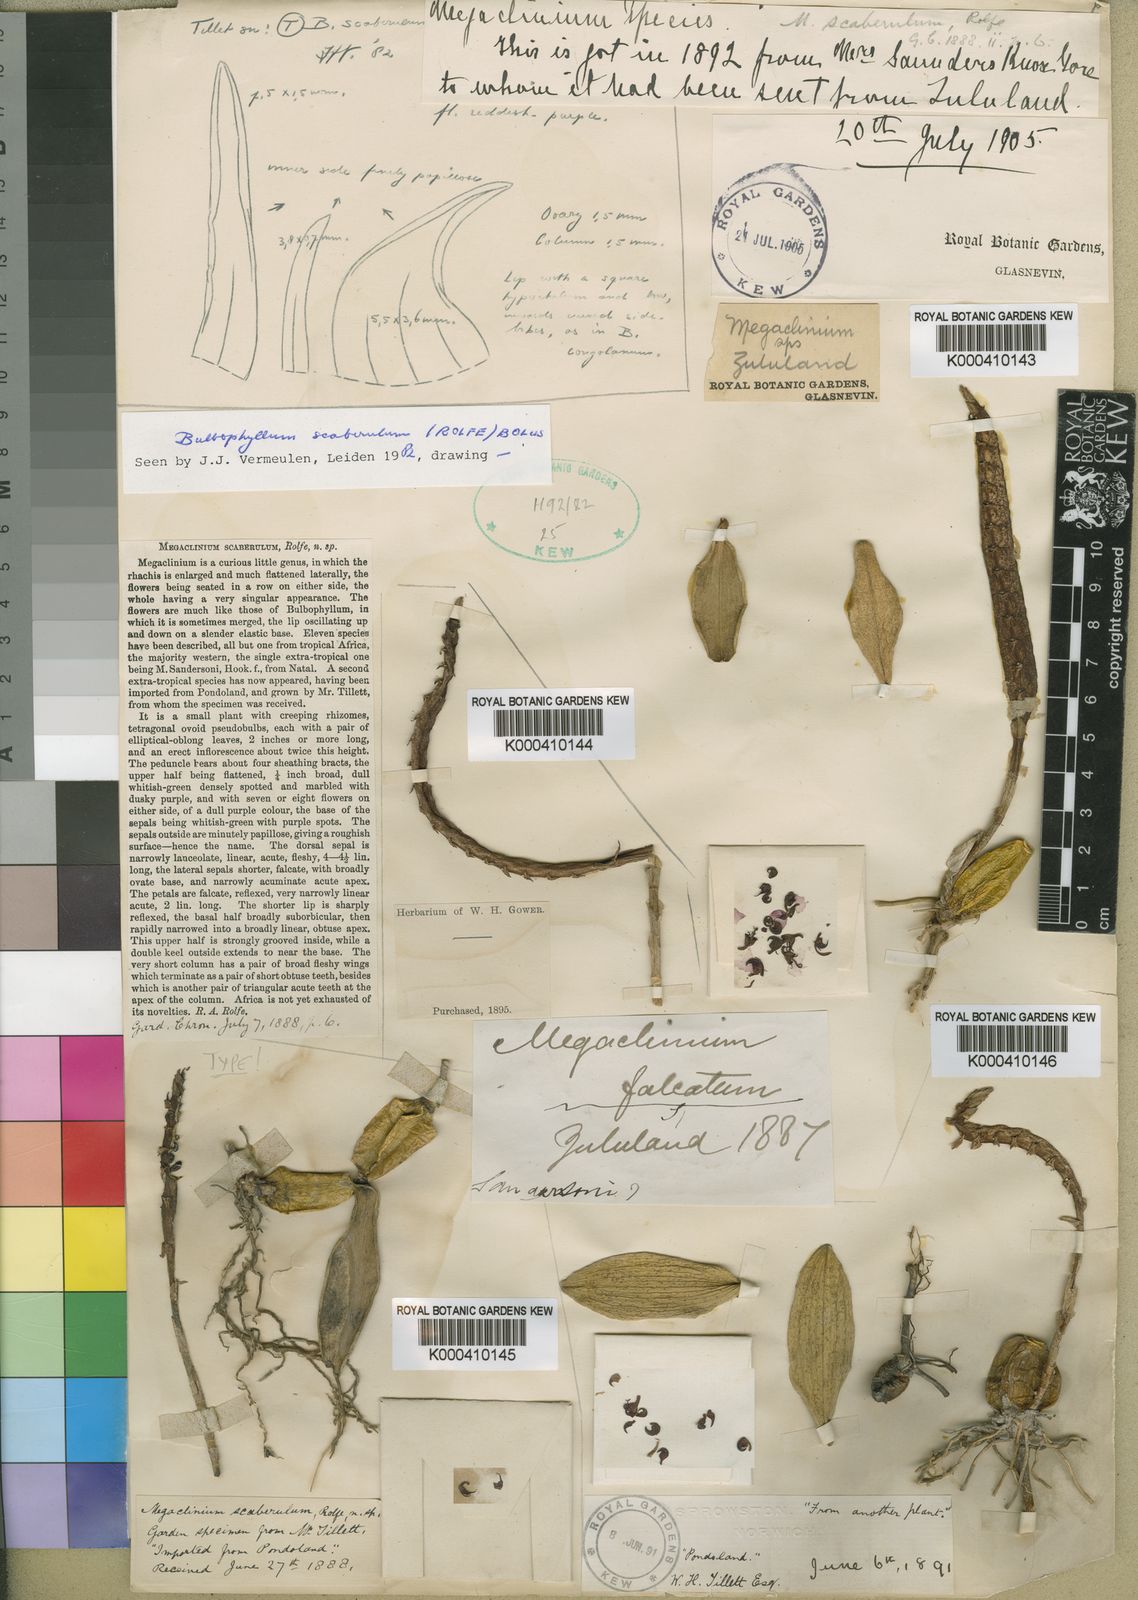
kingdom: Plantae
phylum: Tracheophyta
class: Liliopsida
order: Asparagales
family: Orchidaceae
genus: Bulbophyllum
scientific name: Bulbophyllum pseudohydra
